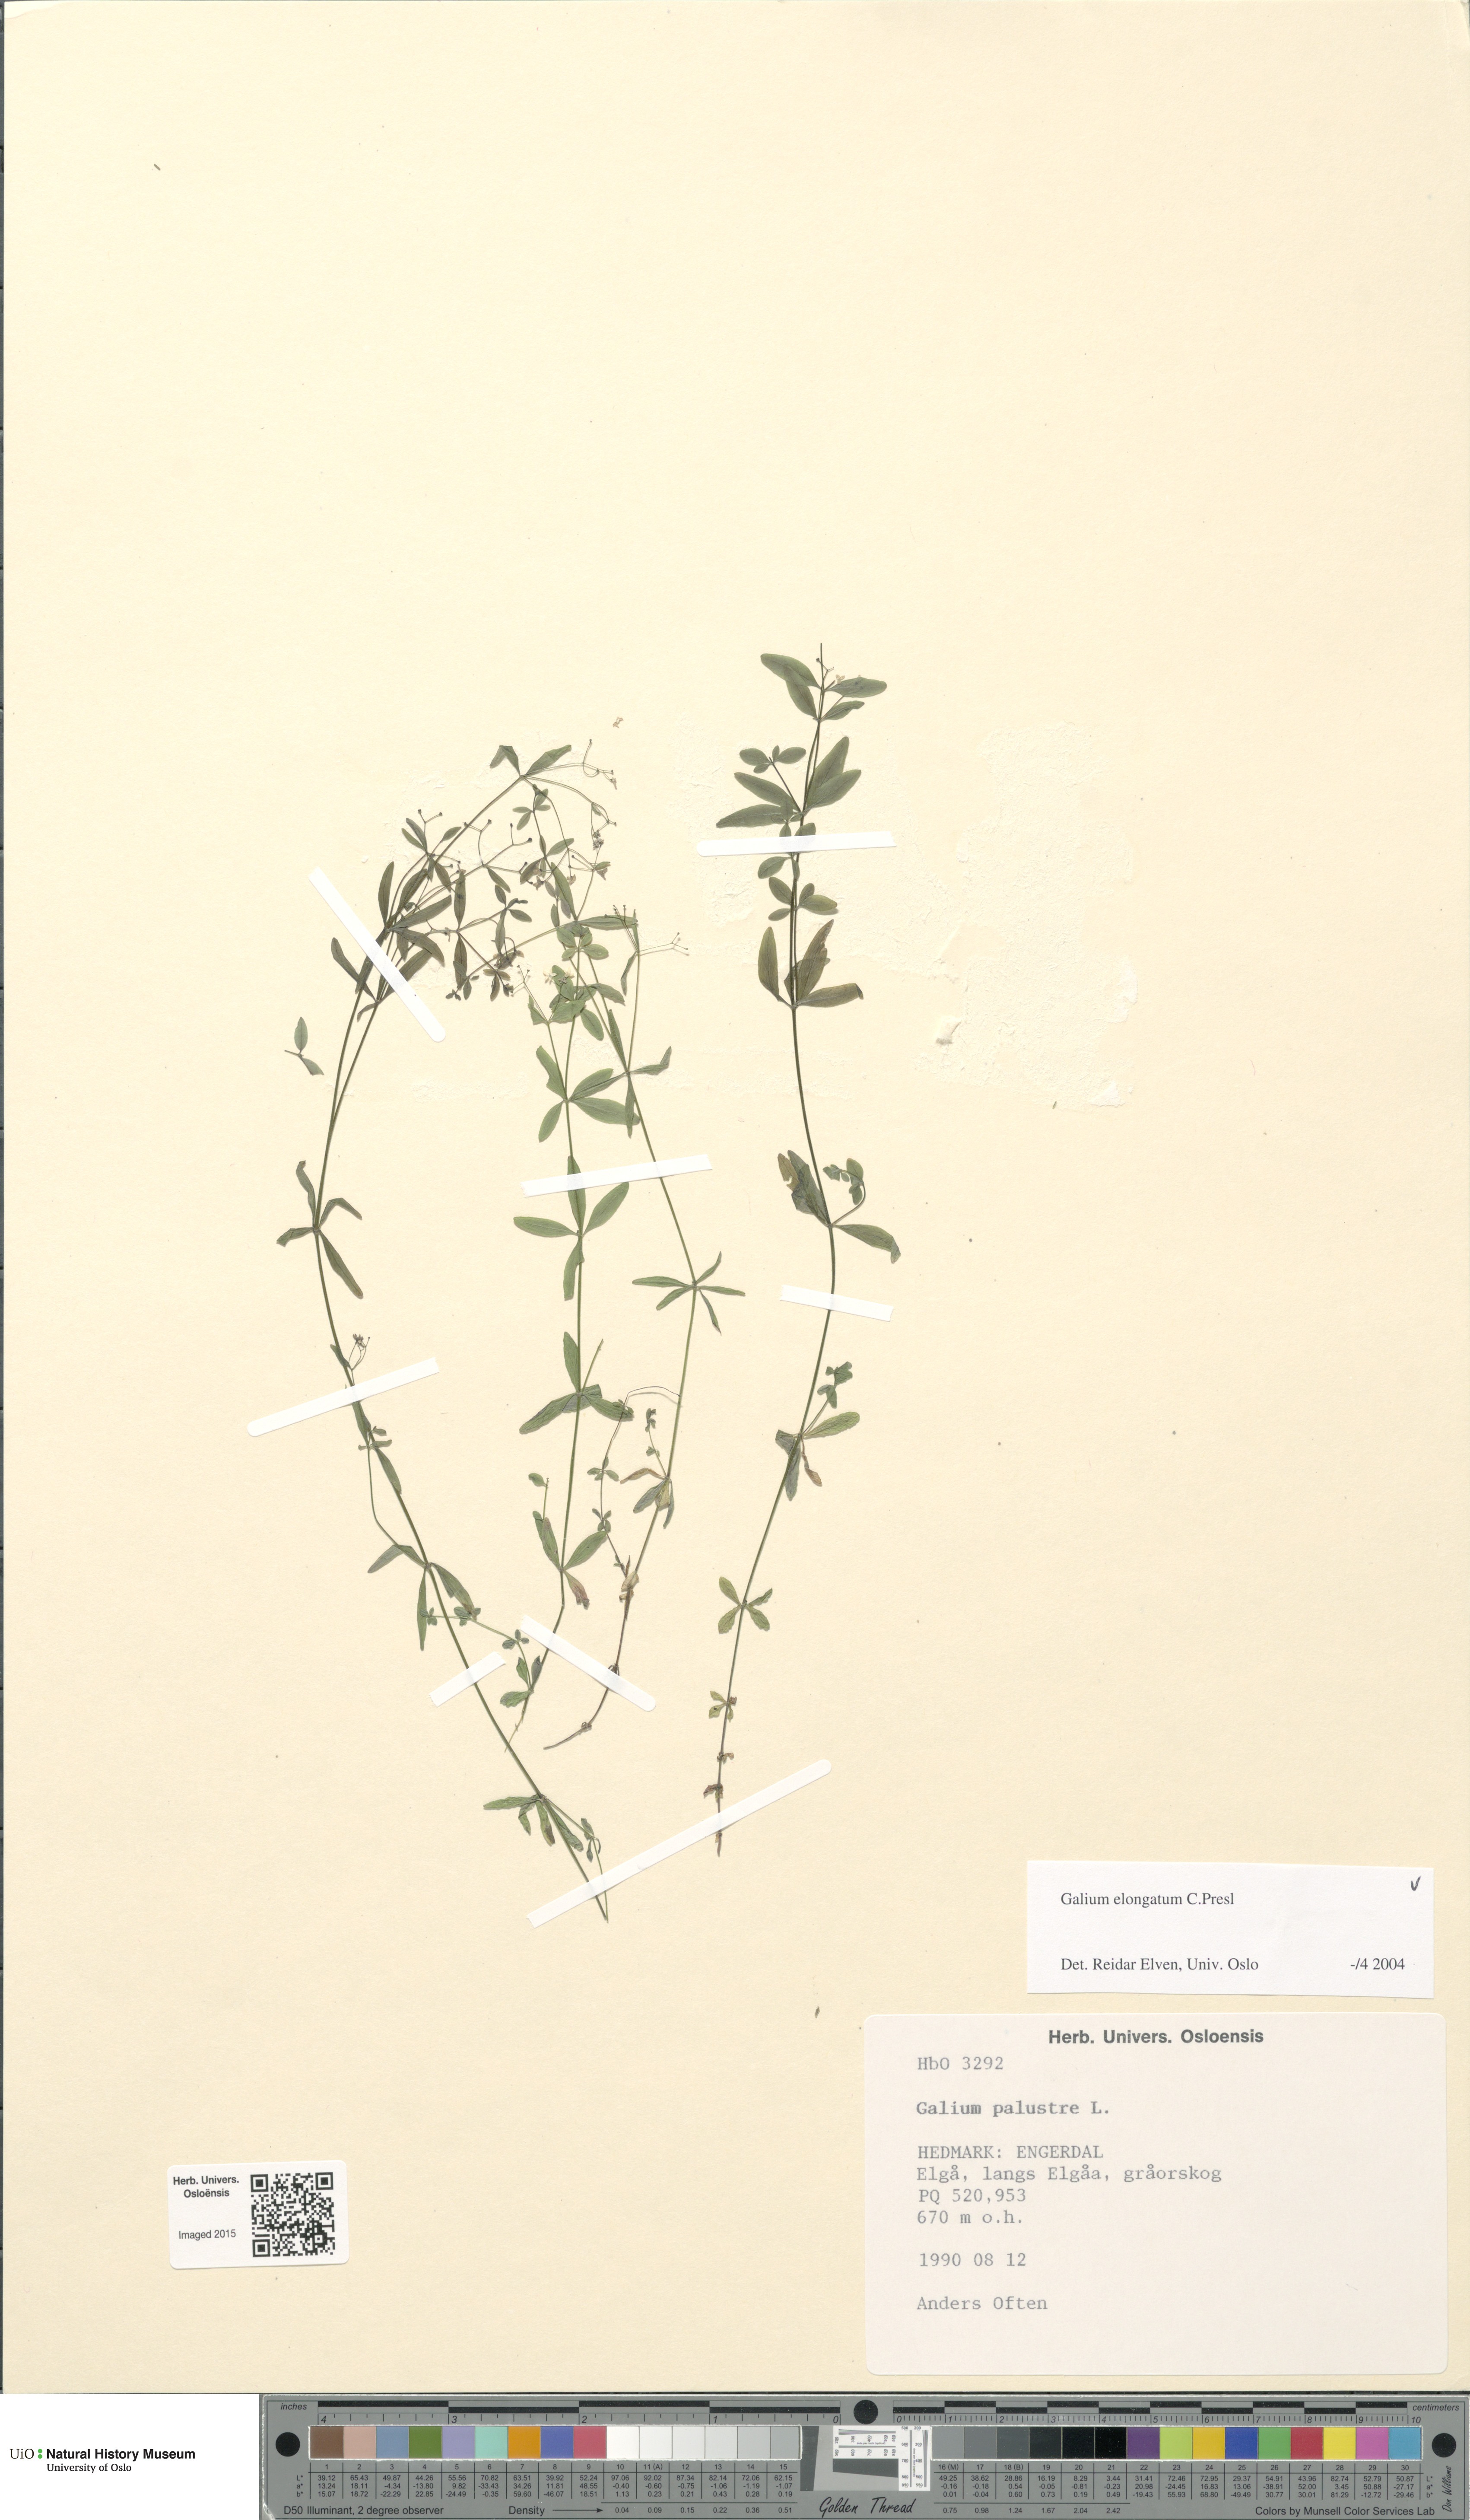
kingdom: Plantae
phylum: Tracheophyta
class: Magnoliopsida
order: Gentianales
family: Rubiaceae
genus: Galium
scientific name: Galium elongatum
